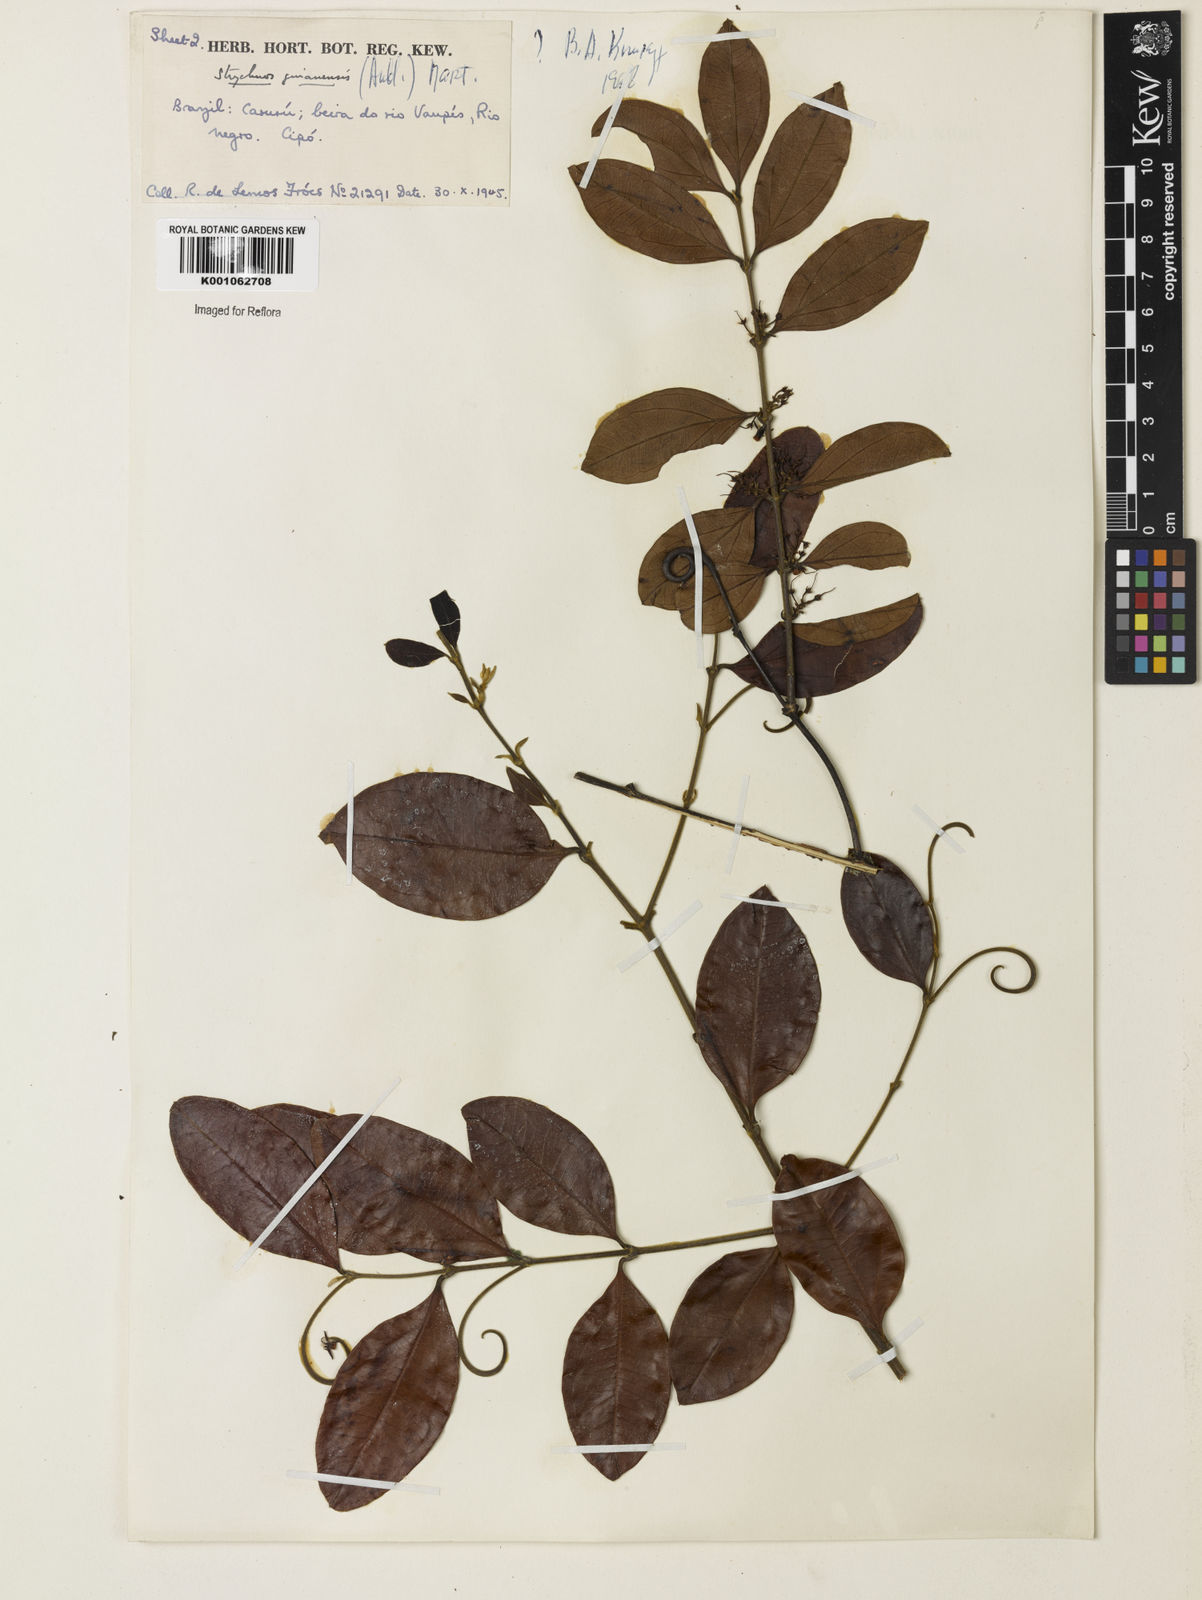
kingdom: Plantae
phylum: Tracheophyta
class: Magnoliopsida
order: Gentianales
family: Loganiaceae
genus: Strychnos
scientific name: Strychnos guianensis
